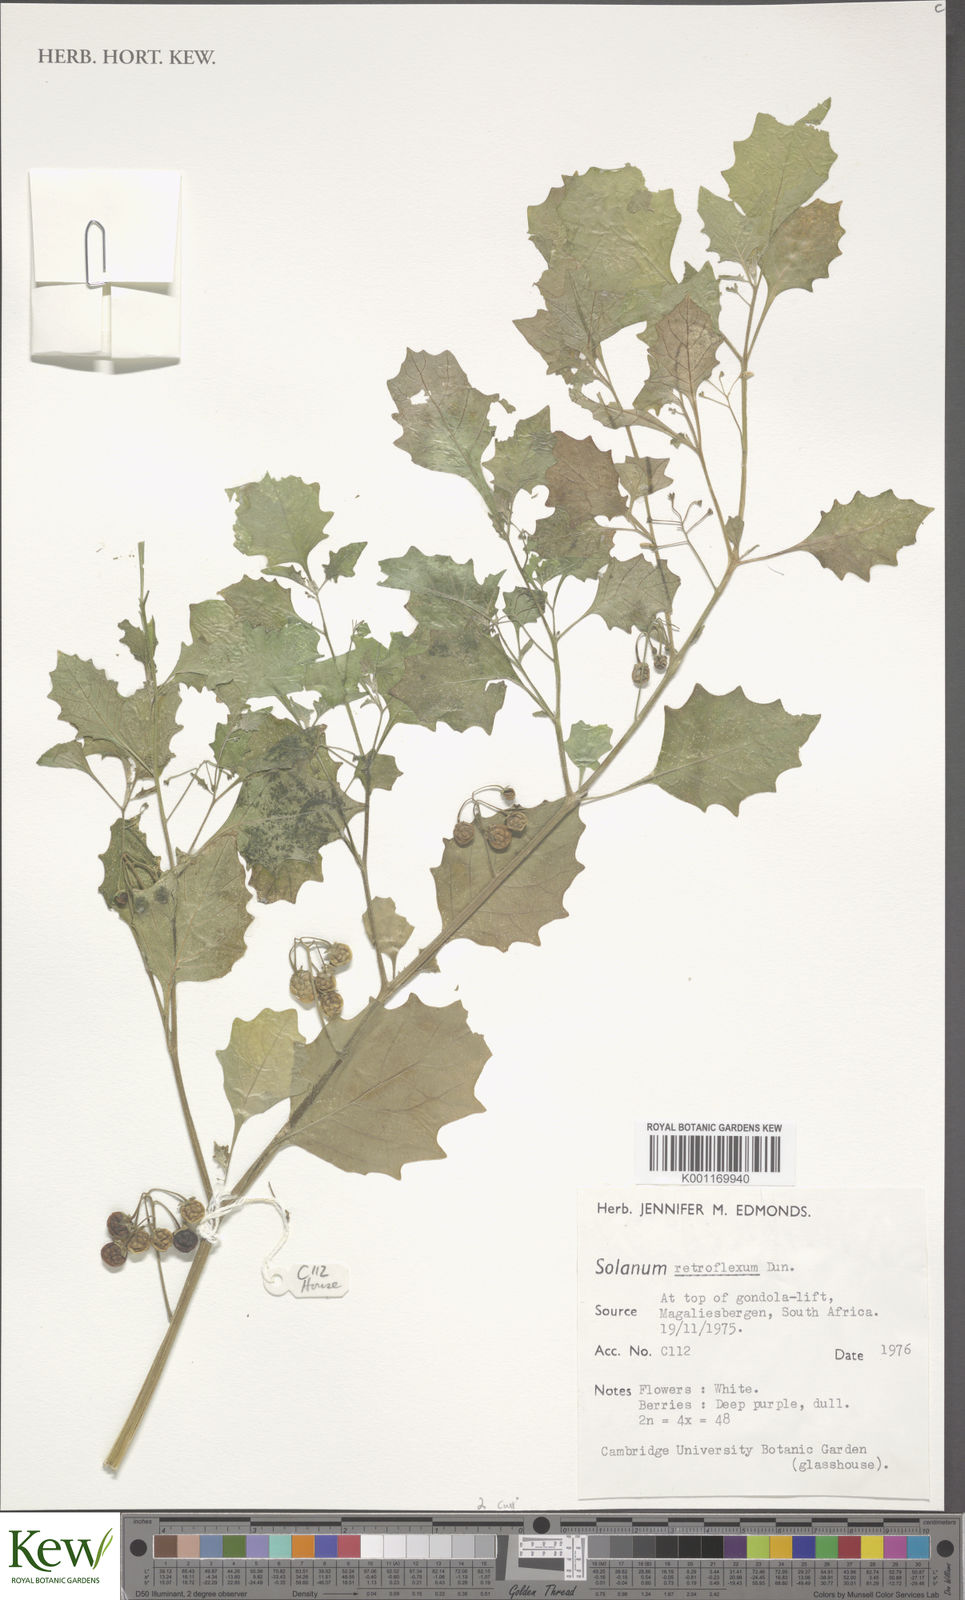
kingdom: Plantae
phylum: Tracheophyta
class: Magnoliopsida
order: Solanales
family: Solanaceae
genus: Solanum
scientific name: Solanum retroflexum
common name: Wonderberry
